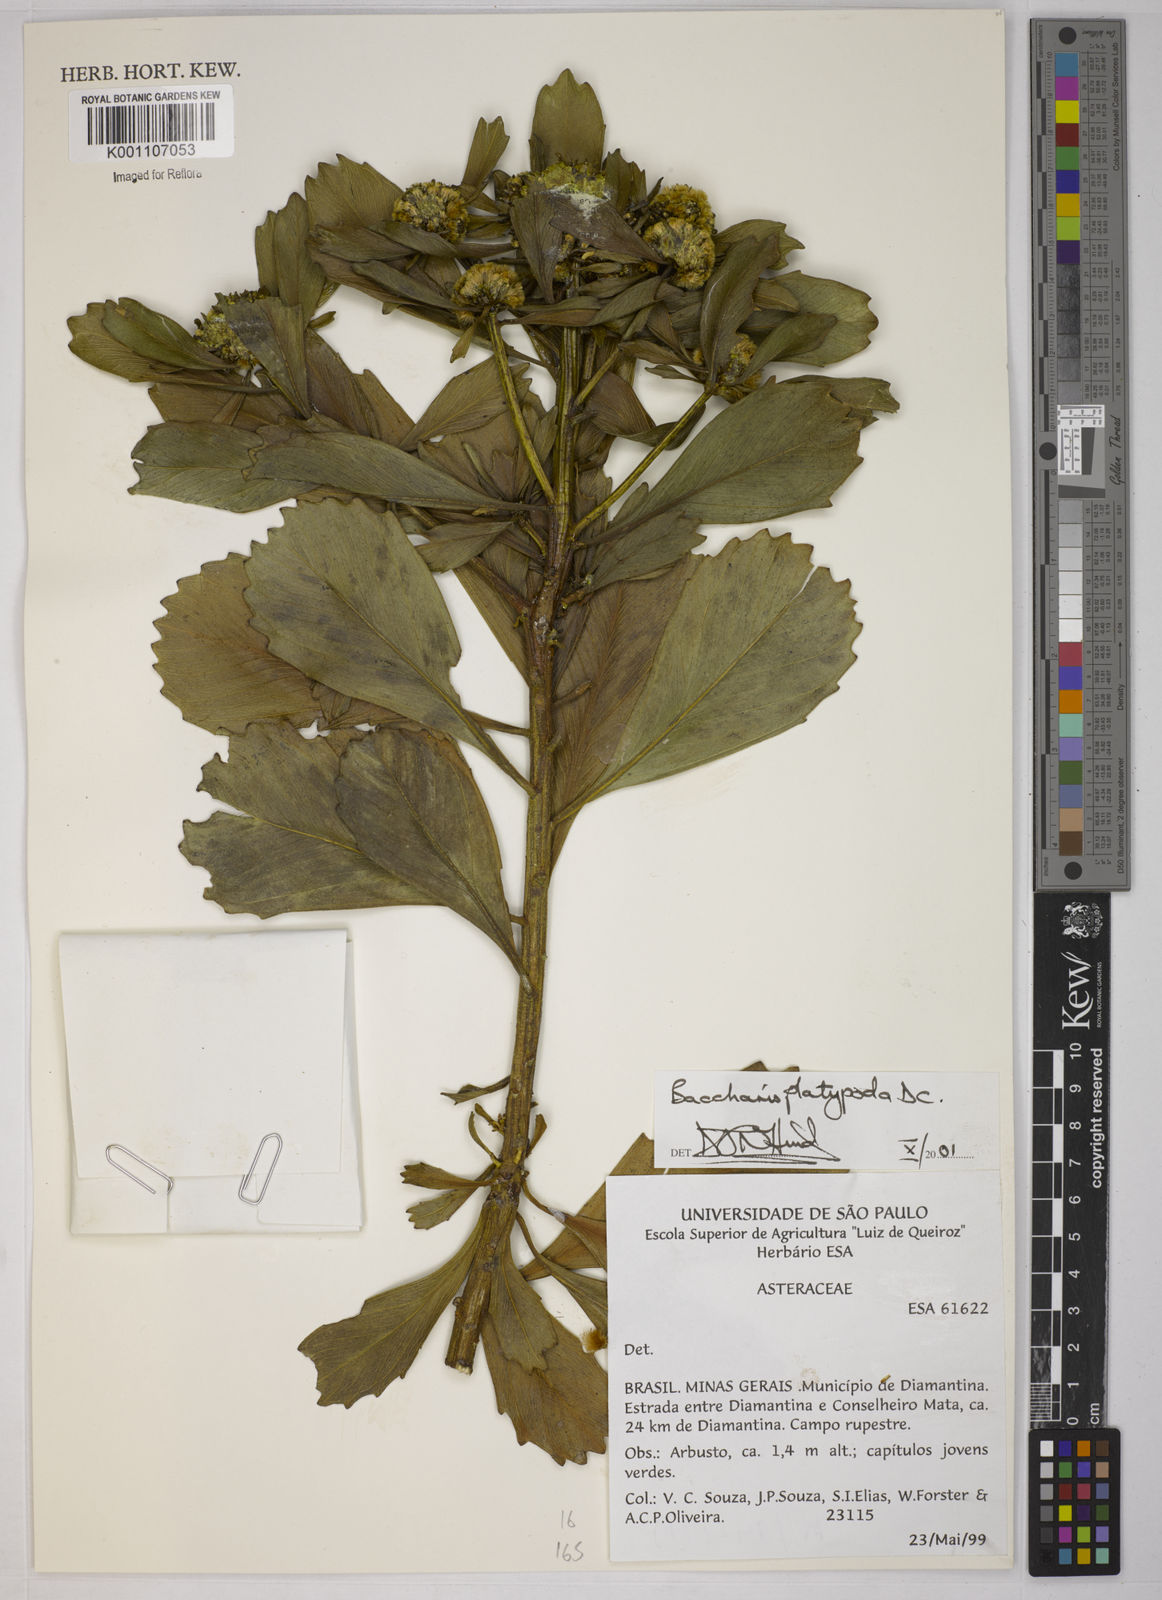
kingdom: Plantae
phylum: Tracheophyta
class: Magnoliopsida
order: Asterales
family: Asteraceae
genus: Baccharis
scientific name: Baccharis platypoda
